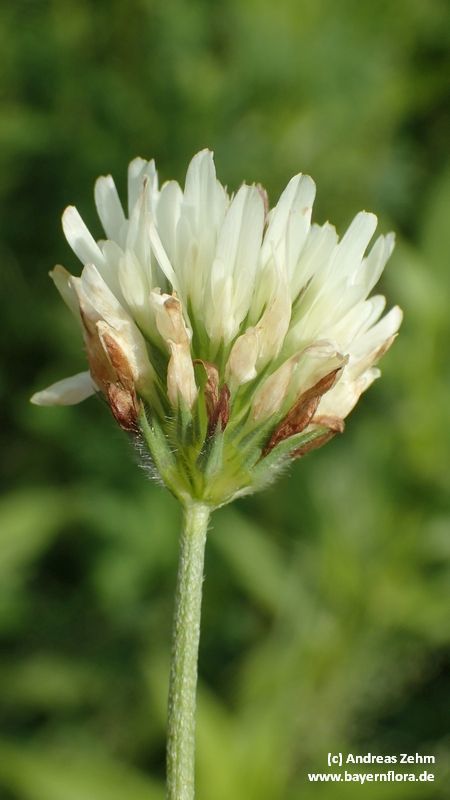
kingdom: Plantae
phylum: Tracheophyta
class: Magnoliopsida
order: Fabales
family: Fabaceae
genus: Trifolium
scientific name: Trifolium alexandrinum
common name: Egyptian clover
